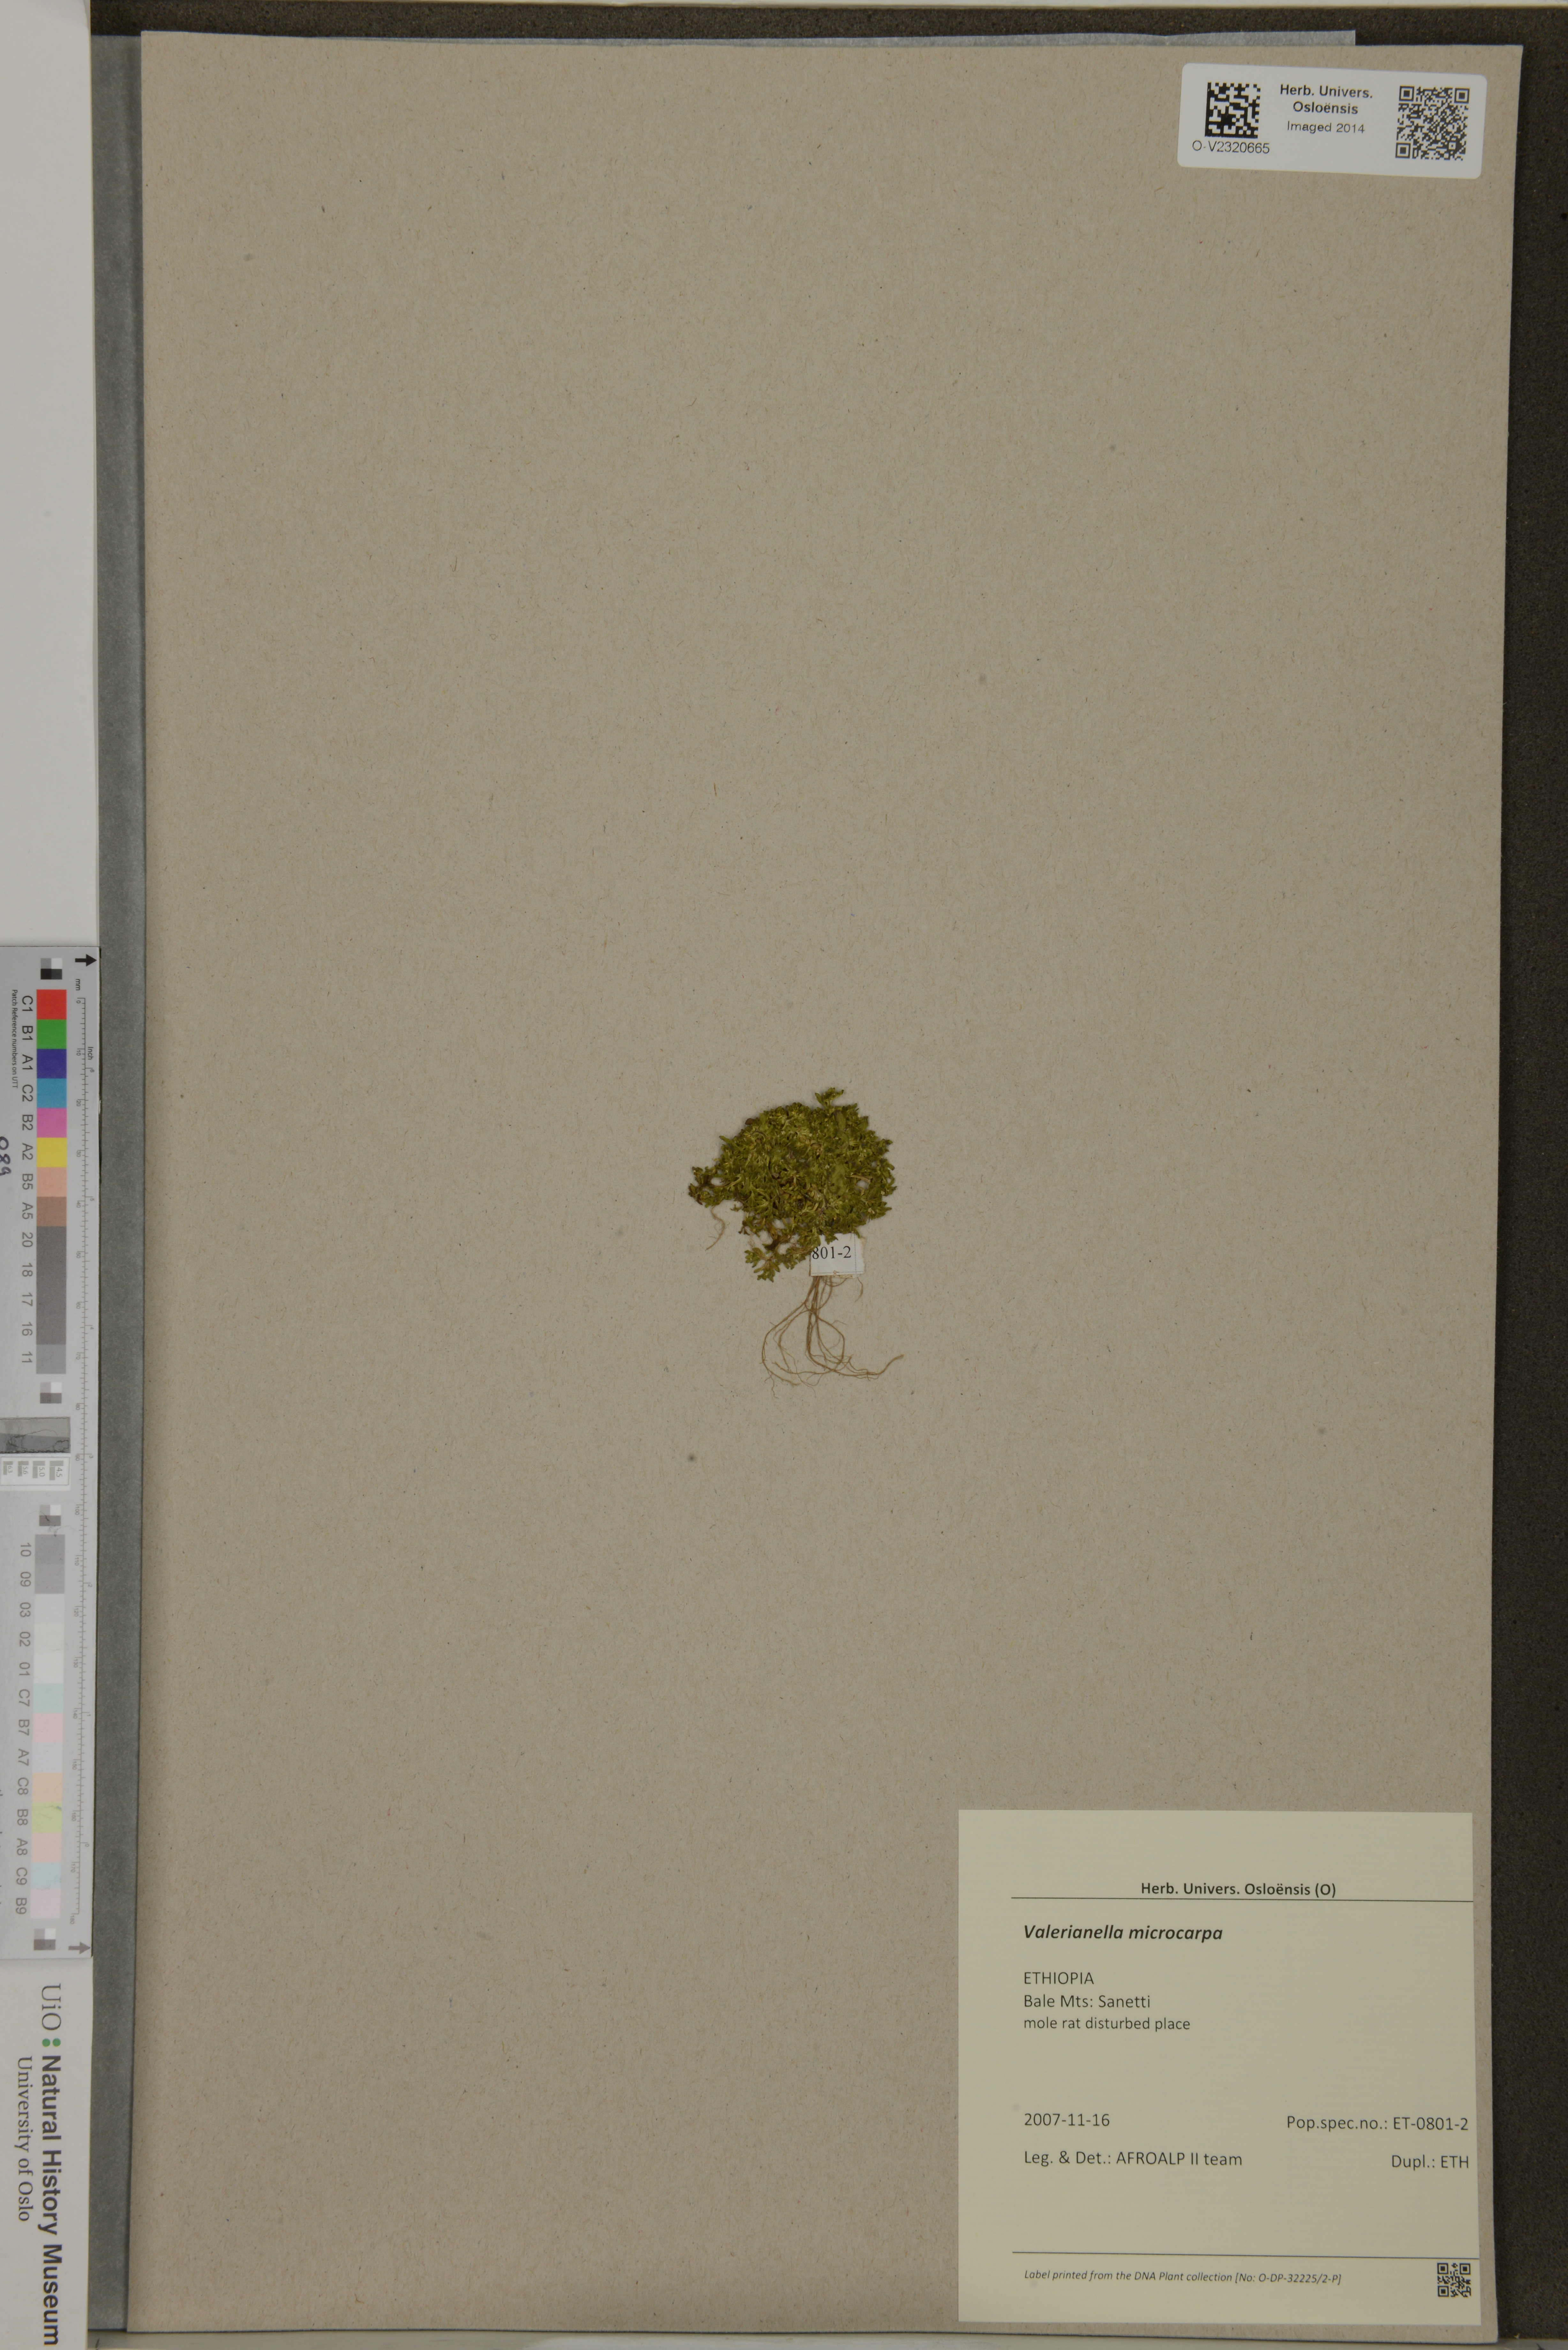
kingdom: Plantae
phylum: Tracheophyta
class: Magnoliopsida
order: Dipsacales
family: Caprifoliaceae
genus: Valerianella
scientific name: Valerianella microcarpa
